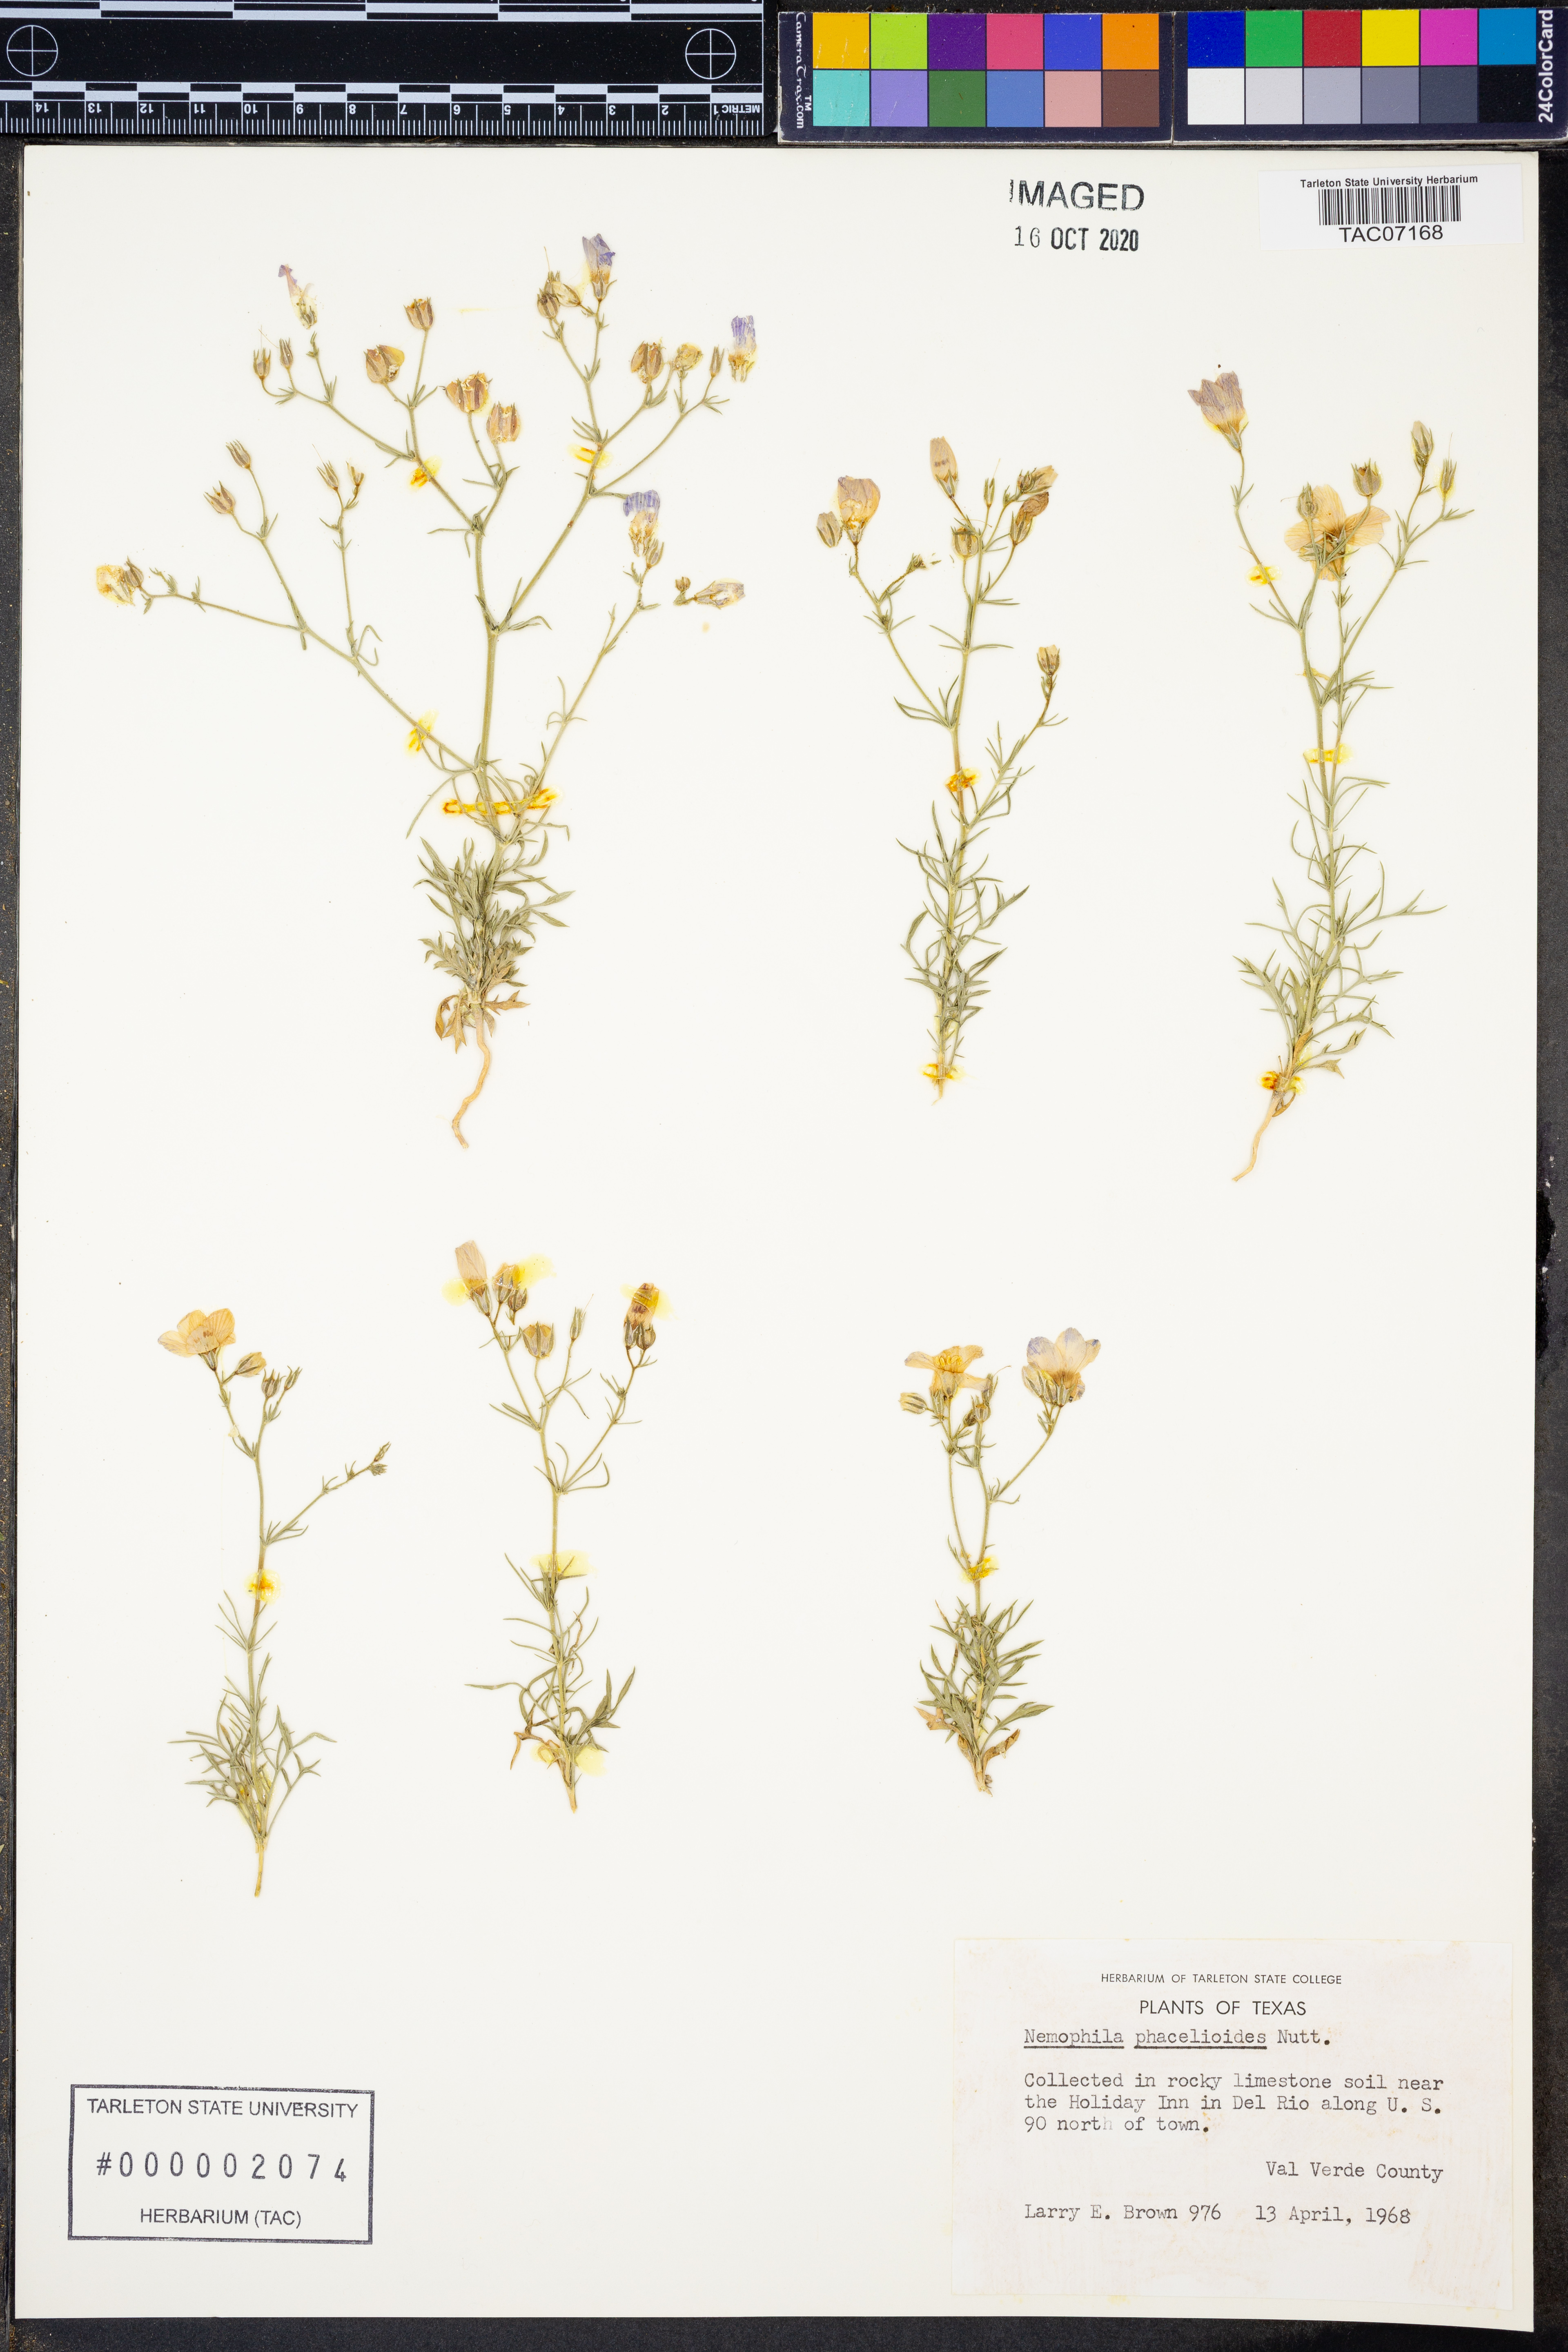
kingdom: Plantae
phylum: Tracheophyta
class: Magnoliopsida
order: Boraginales
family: Hydrophyllaceae
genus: Nemophila
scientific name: Nemophila phacelioides
